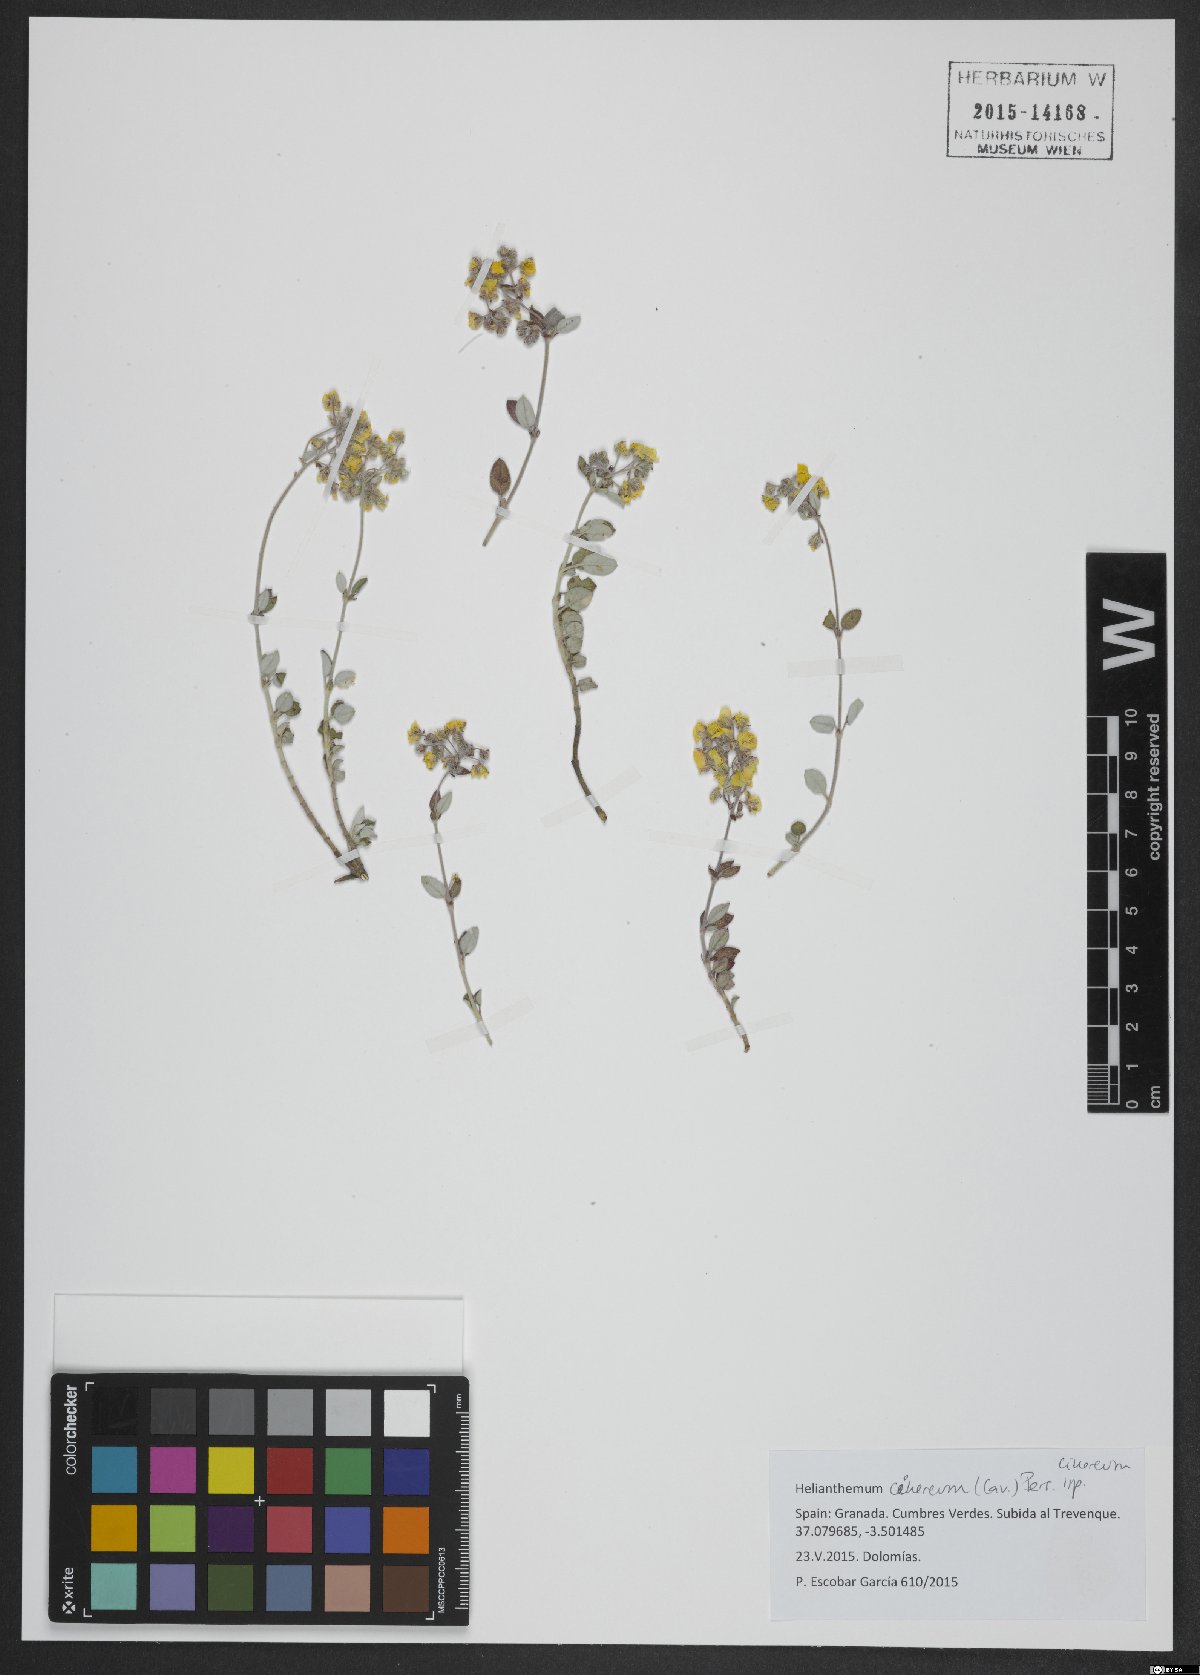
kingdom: Plantae
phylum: Tracheophyta
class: Magnoliopsida
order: Malvales
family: Cistaceae
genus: Helianthemum
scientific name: Helianthemum cinereum
